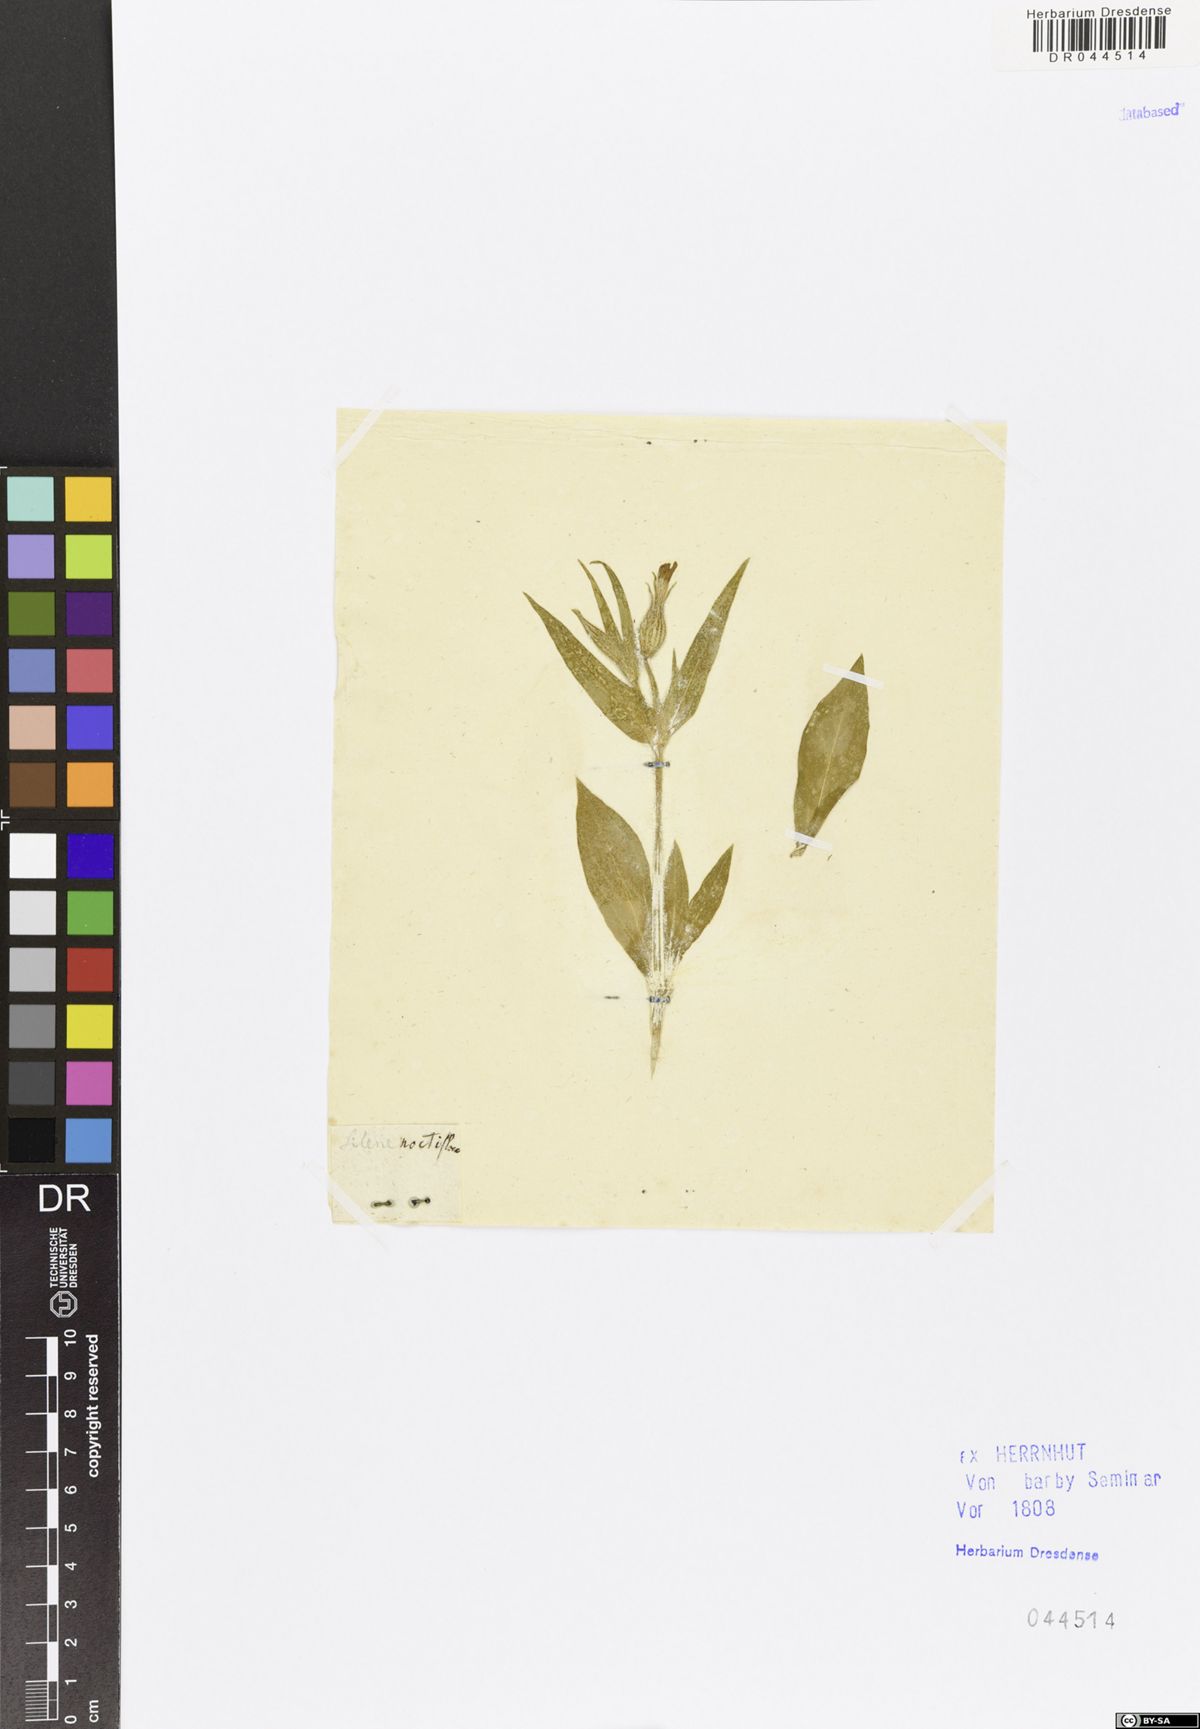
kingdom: Plantae
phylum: Tracheophyta
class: Magnoliopsida
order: Caryophyllales
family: Caryophyllaceae
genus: Silene
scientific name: Silene noctiflora
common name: Night-flowering catchfly
